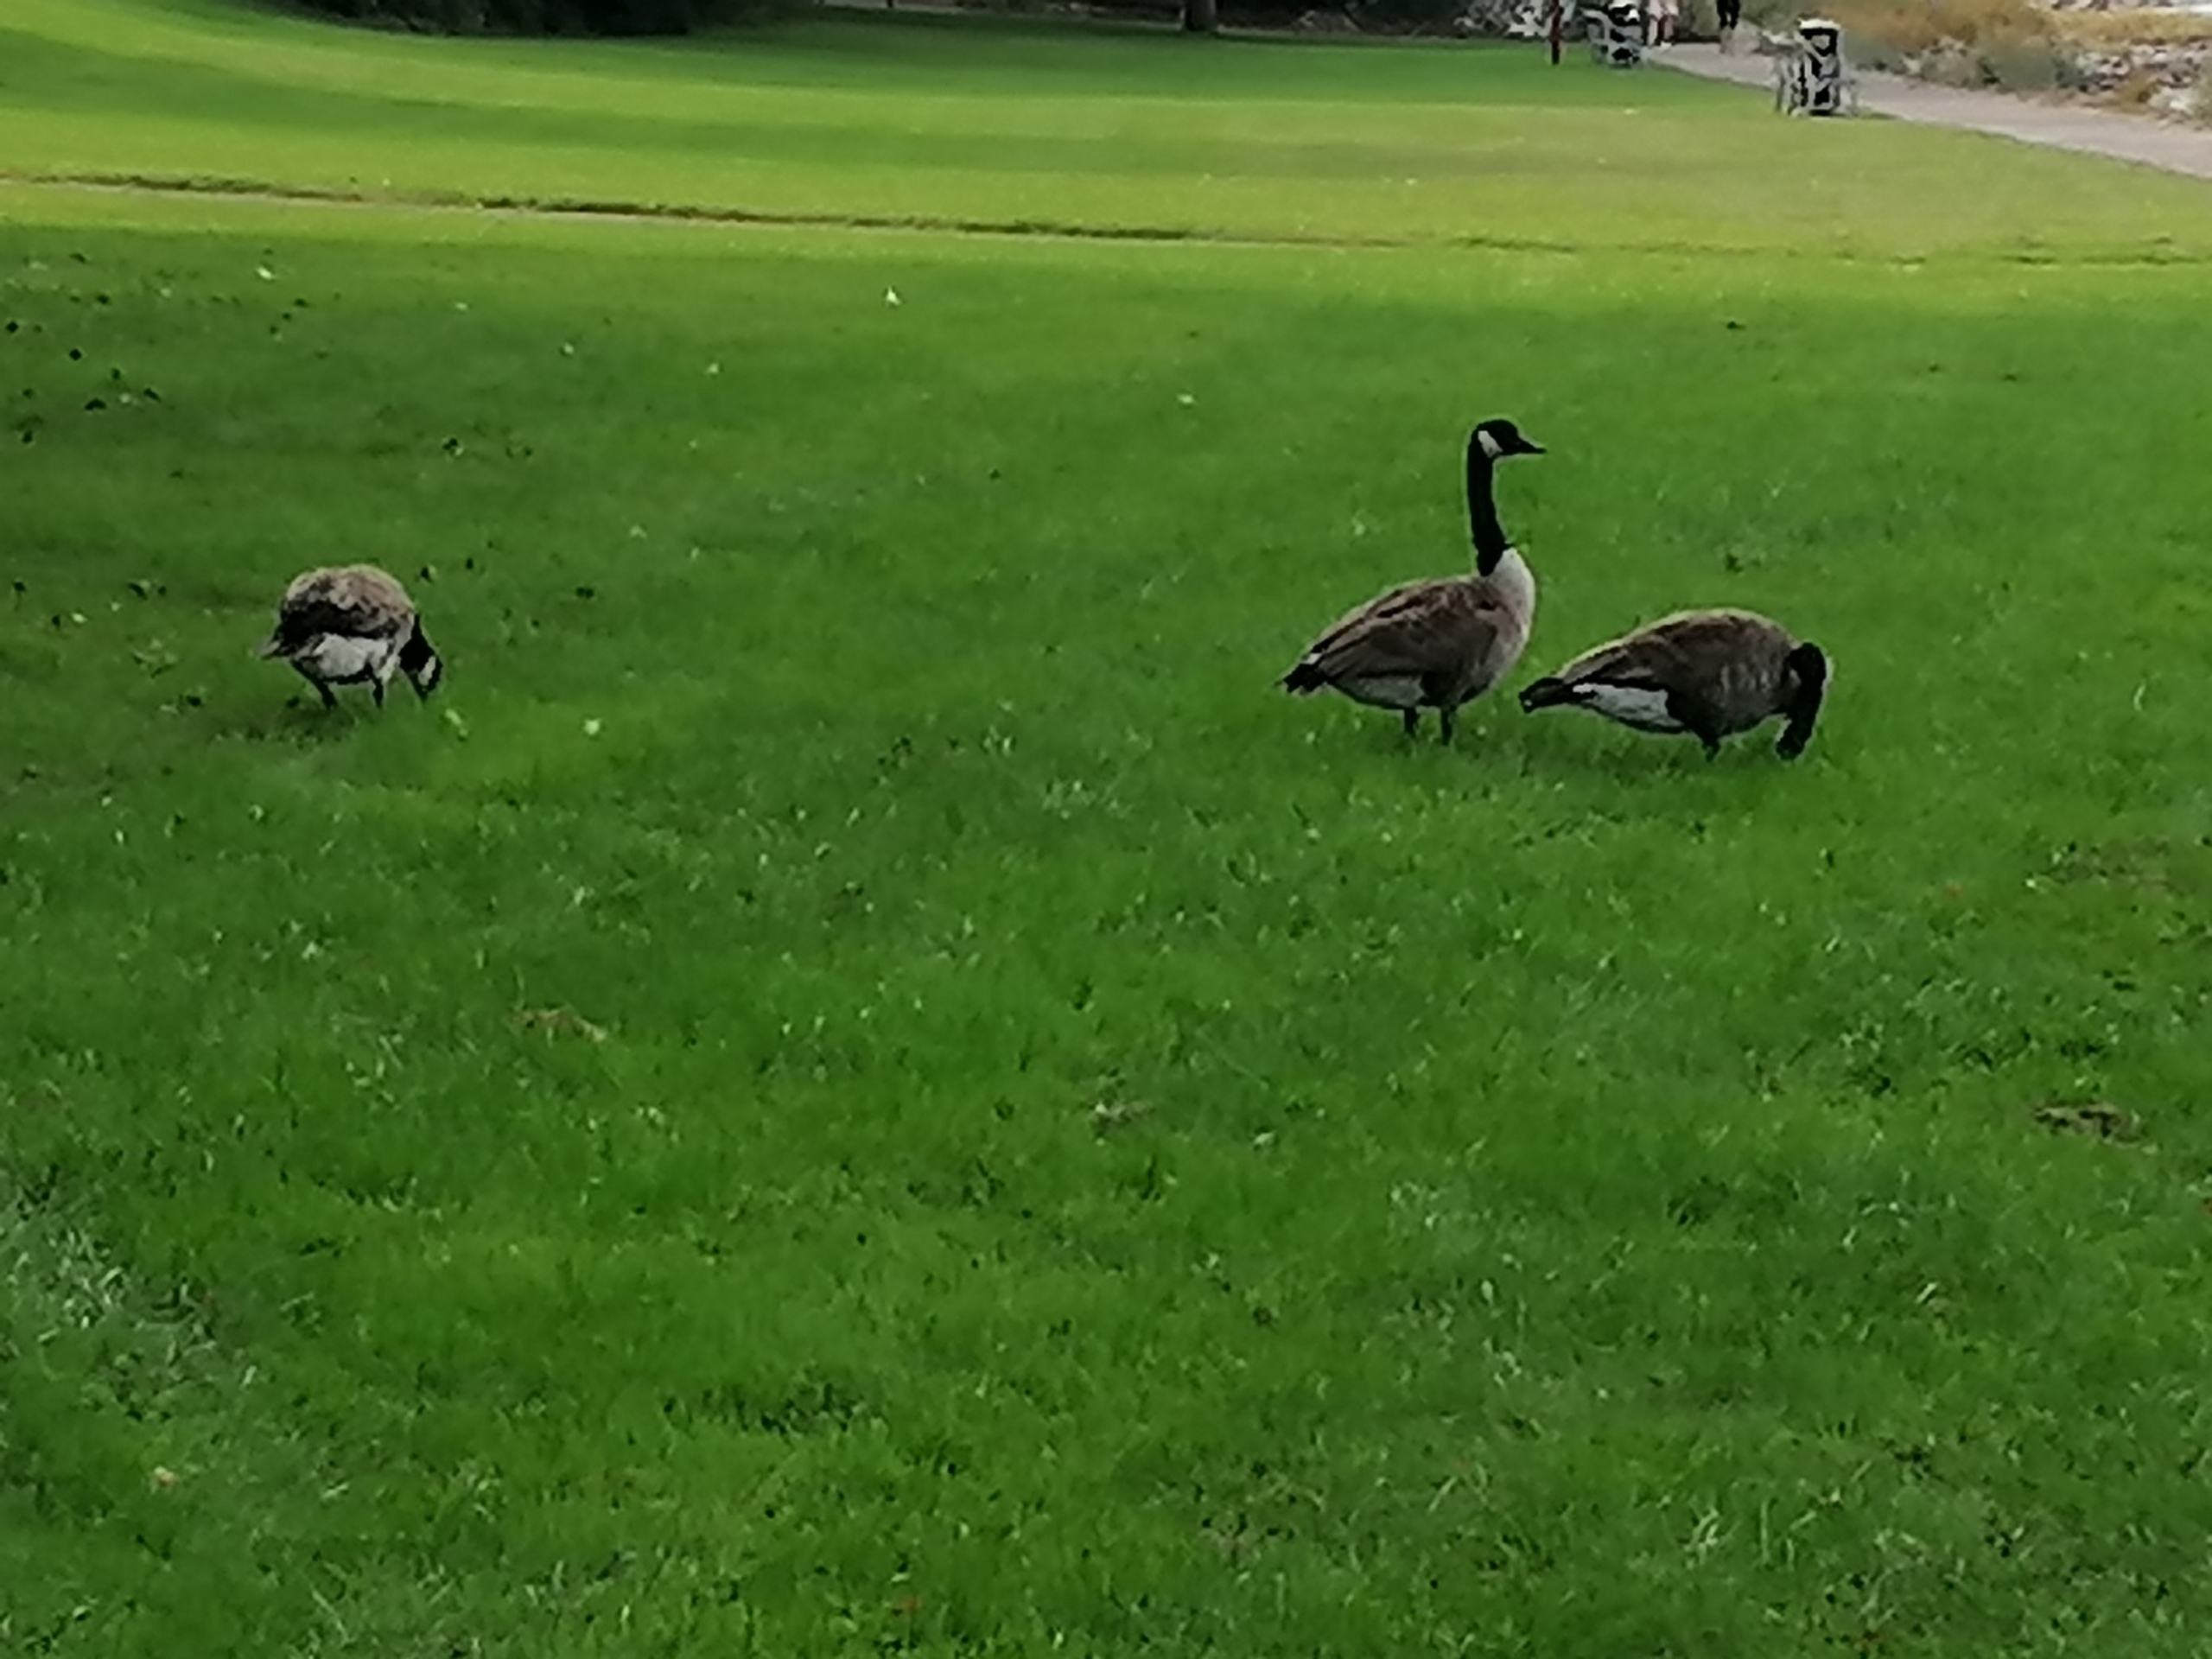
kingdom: Animalia
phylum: Chordata
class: Aves
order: Anseriformes
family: Anatidae
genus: Branta
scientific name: Branta canadensis
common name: Canadagås
